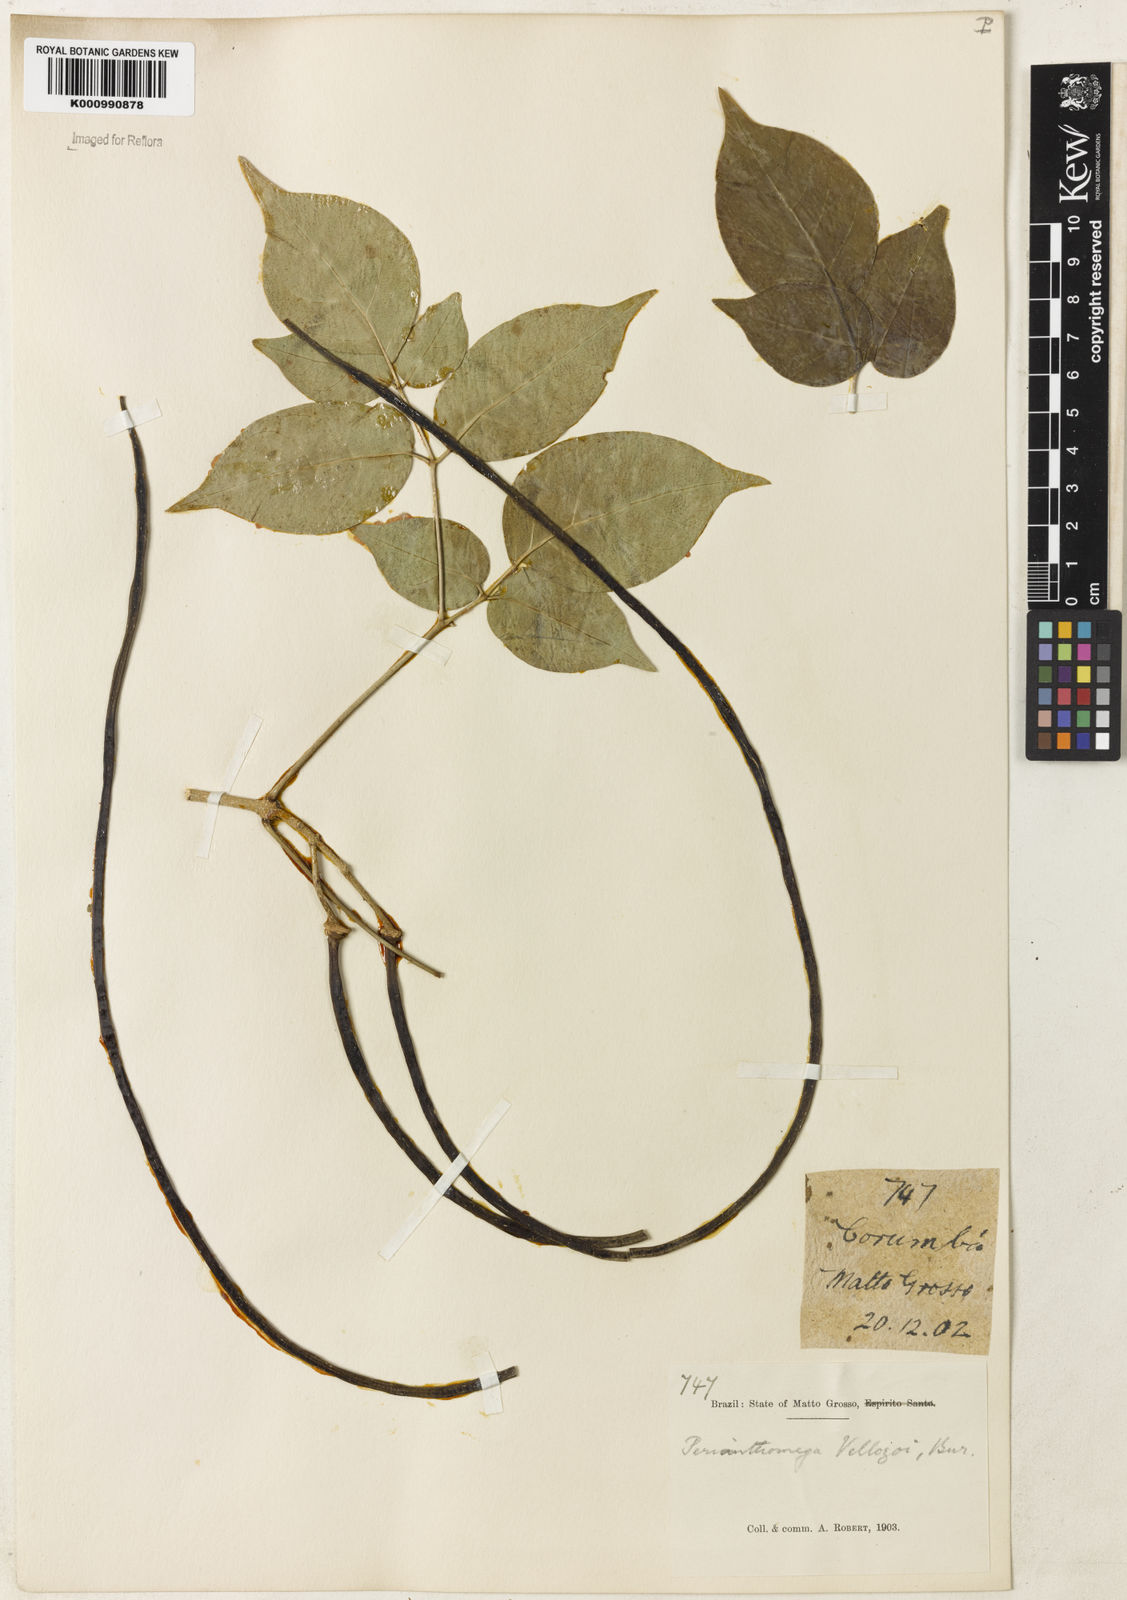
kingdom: Plantae
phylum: Tracheophyta
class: Magnoliopsida
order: Lamiales
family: Bignoniaceae
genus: Perianthomega
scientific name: Perianthomega vellozoi
